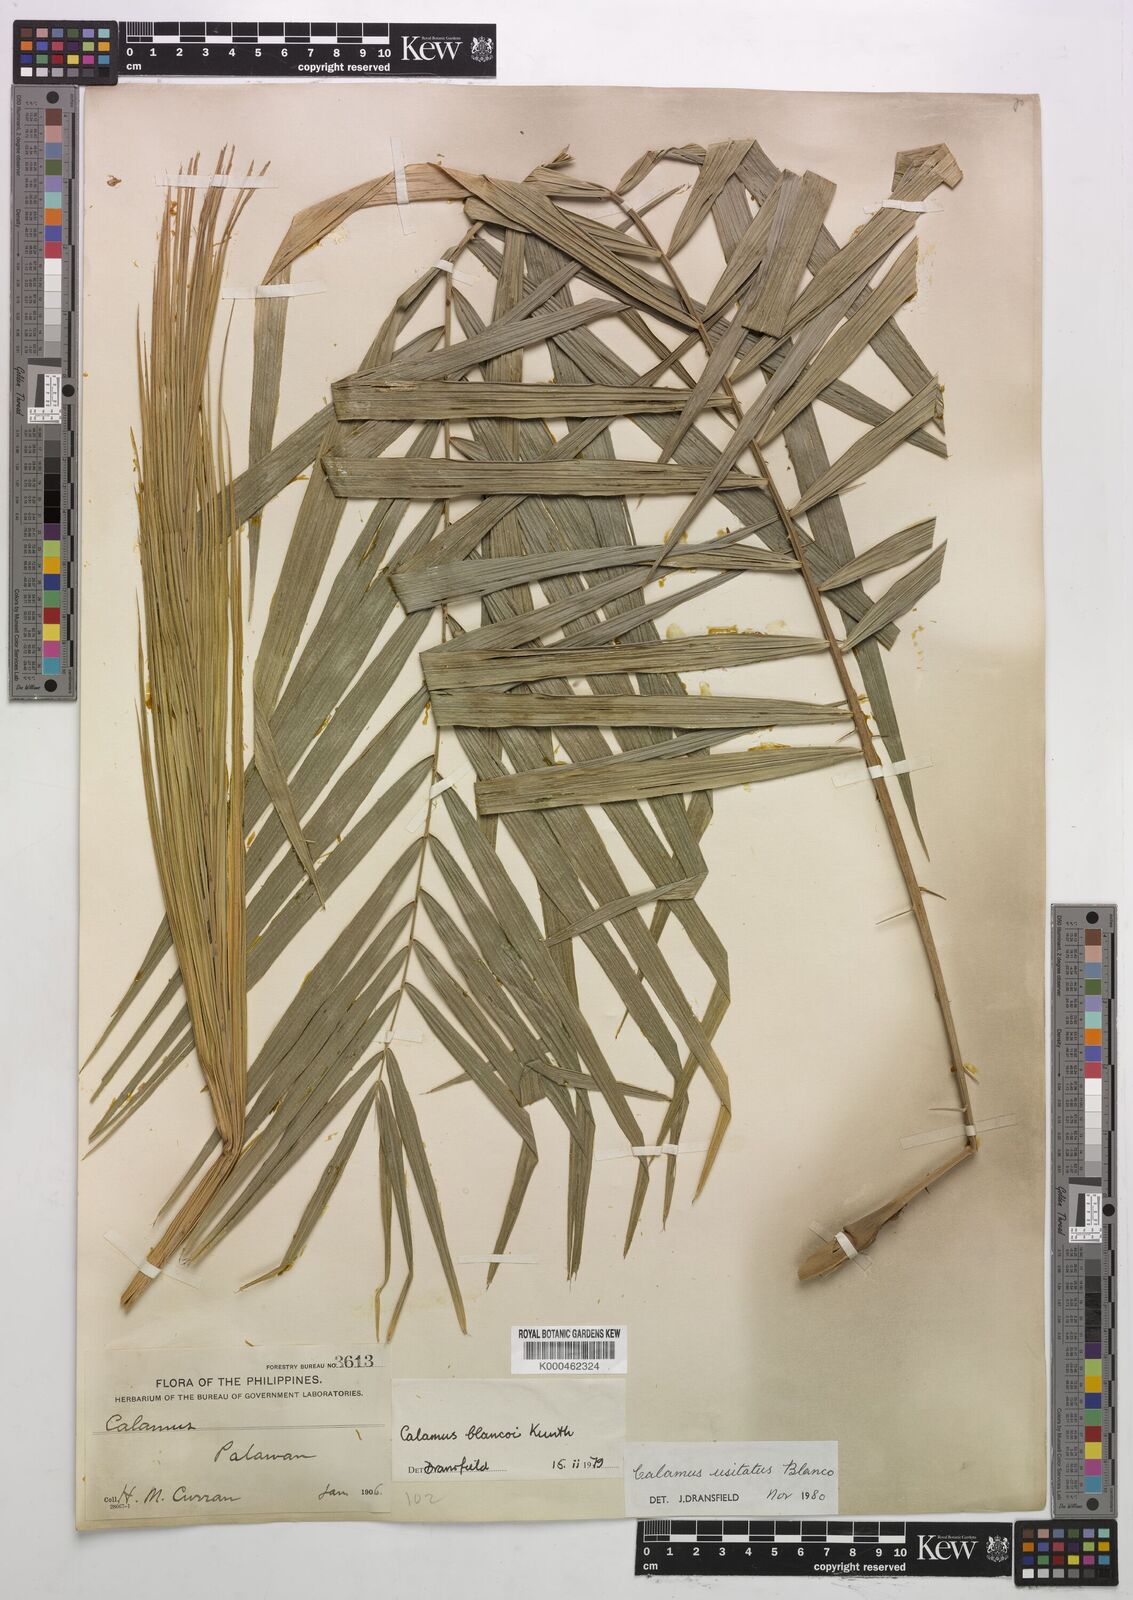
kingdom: Plantae
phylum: Tracheophyta
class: Liliopsida
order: Arecales
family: Arecaceae
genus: Calamus
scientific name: Calamus usitatus
